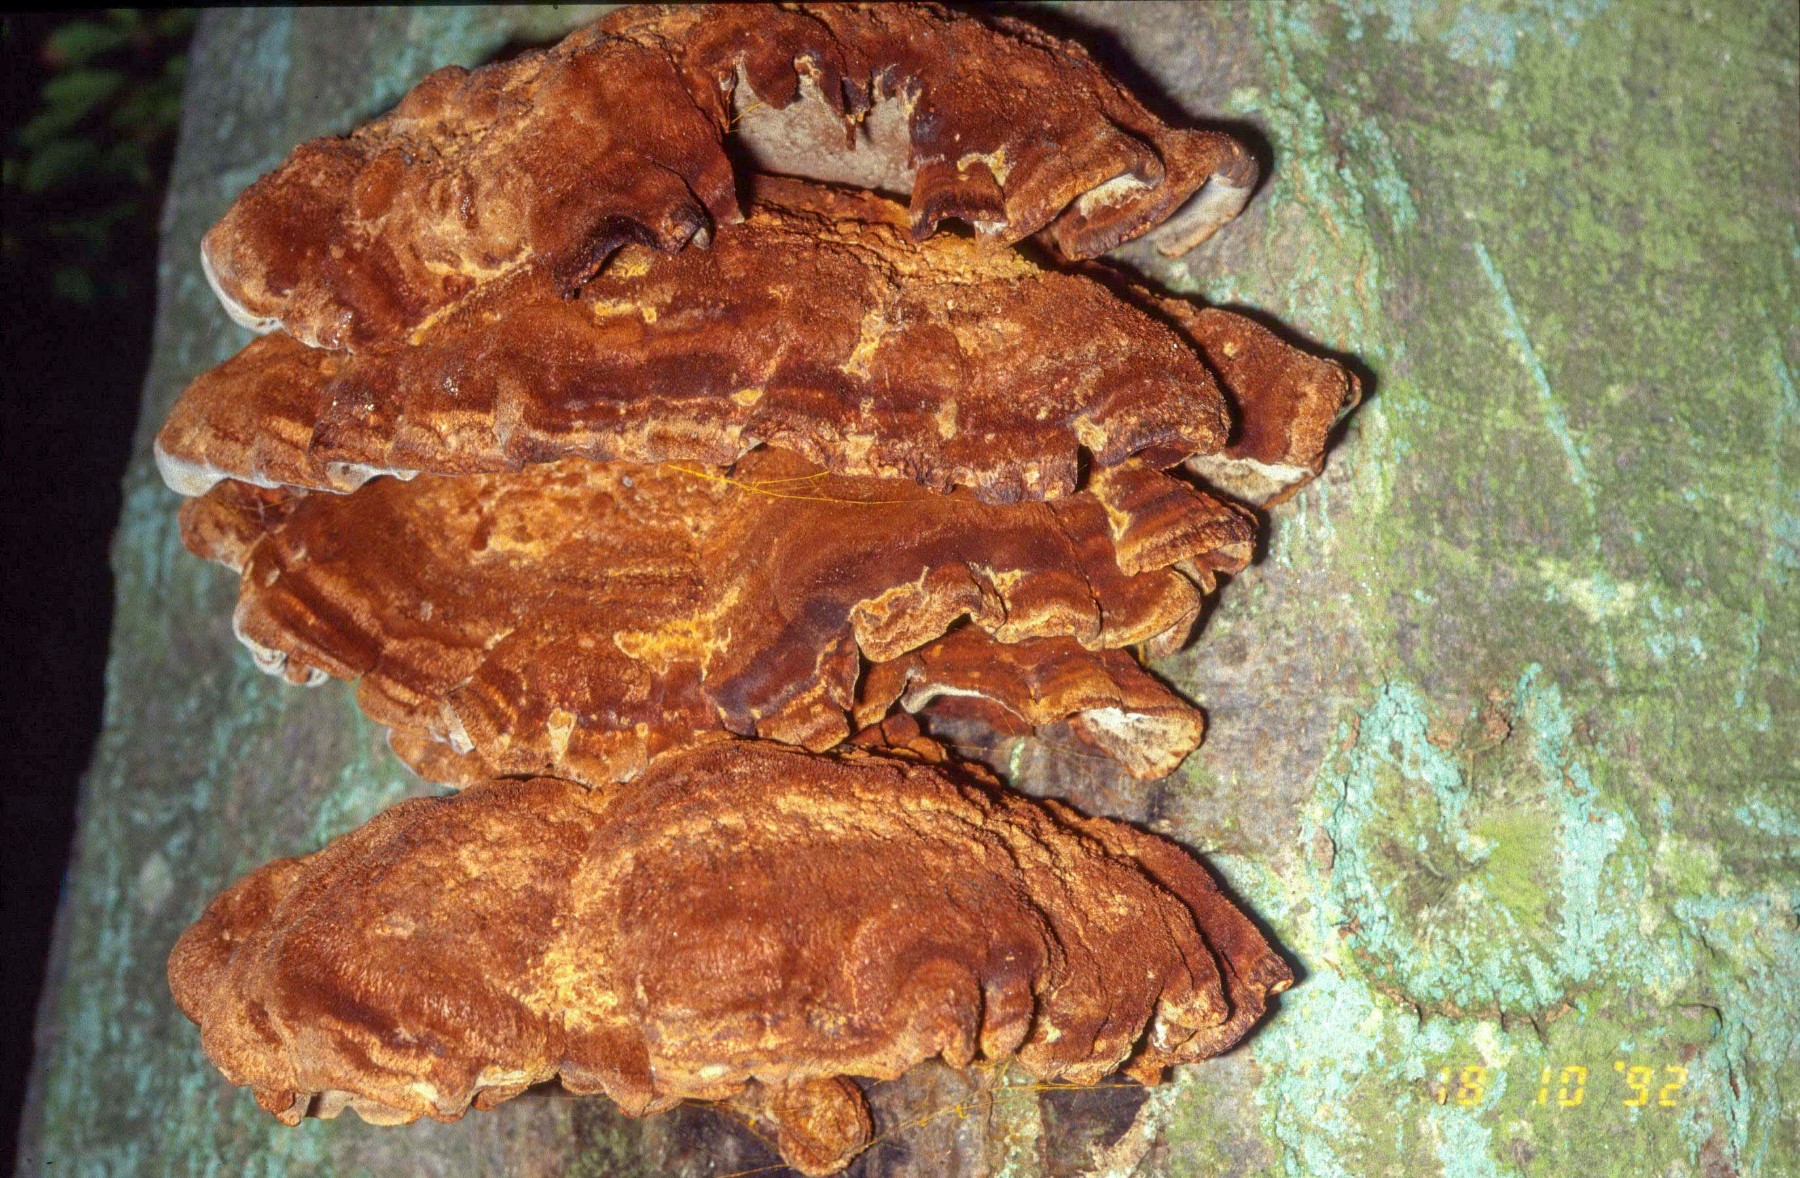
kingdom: Fungi
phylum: Basidiomycota
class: Agaricomycetes
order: Hymenochaetales
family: Hymenochaetaceae
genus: Inonotus
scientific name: Inonotus cuticularis
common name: kroghåret spejlporesvamp
